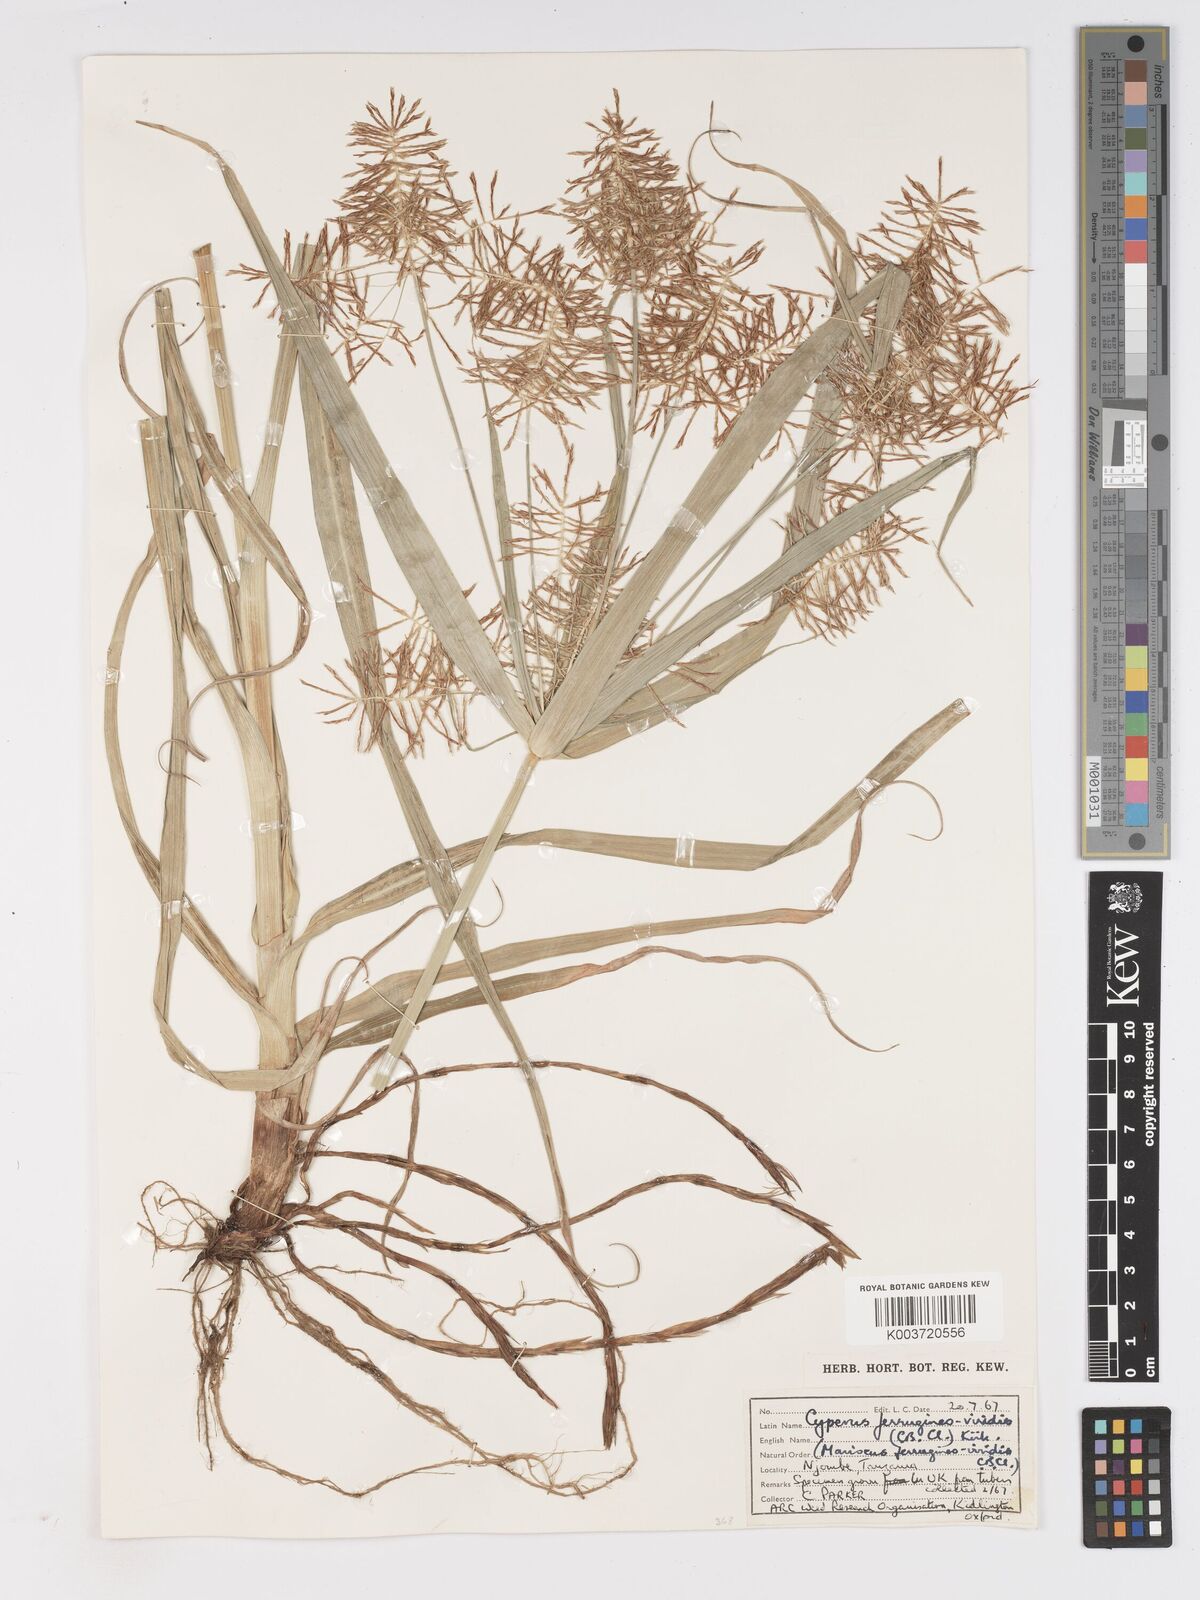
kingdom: Plantae
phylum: Tracheophyta
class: Liliopsida
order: Poales
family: Cyperaceae
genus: Cyperus
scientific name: Cyperus ferrugineoviridis
